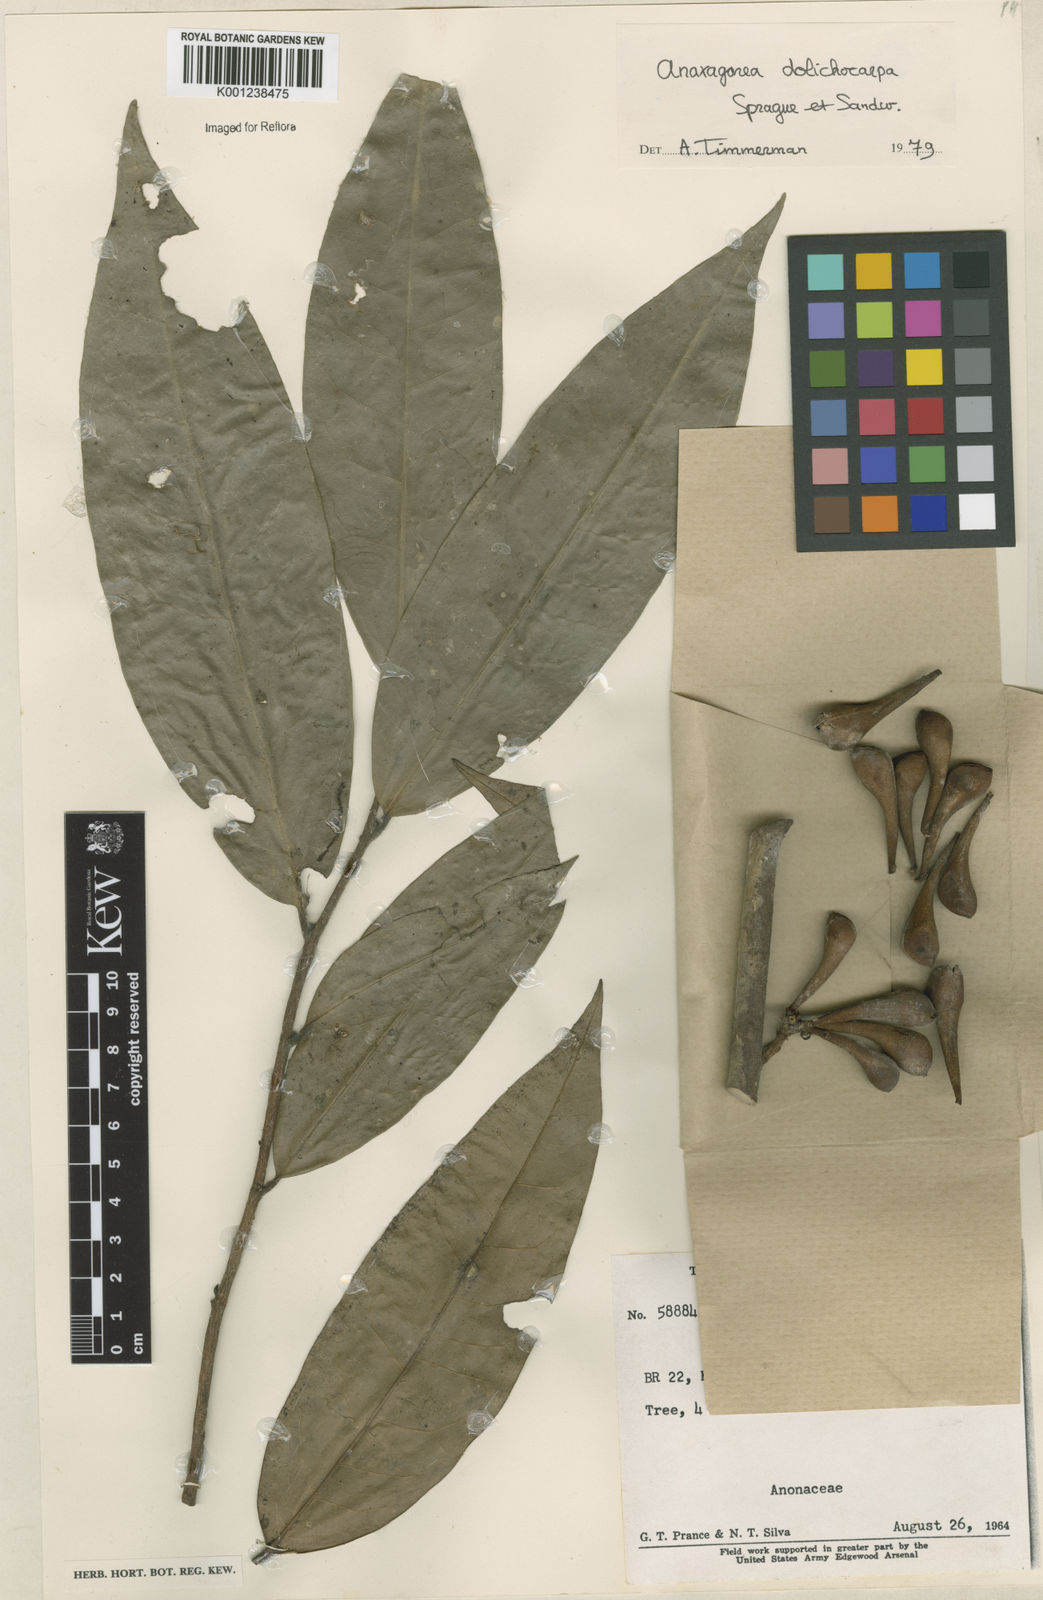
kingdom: Plantae
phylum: Tracheophyta
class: Magnoliopsida
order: Magnoliales
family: Annonaceae
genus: Anaxagorea
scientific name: Anaxagorea dolichocarpa
